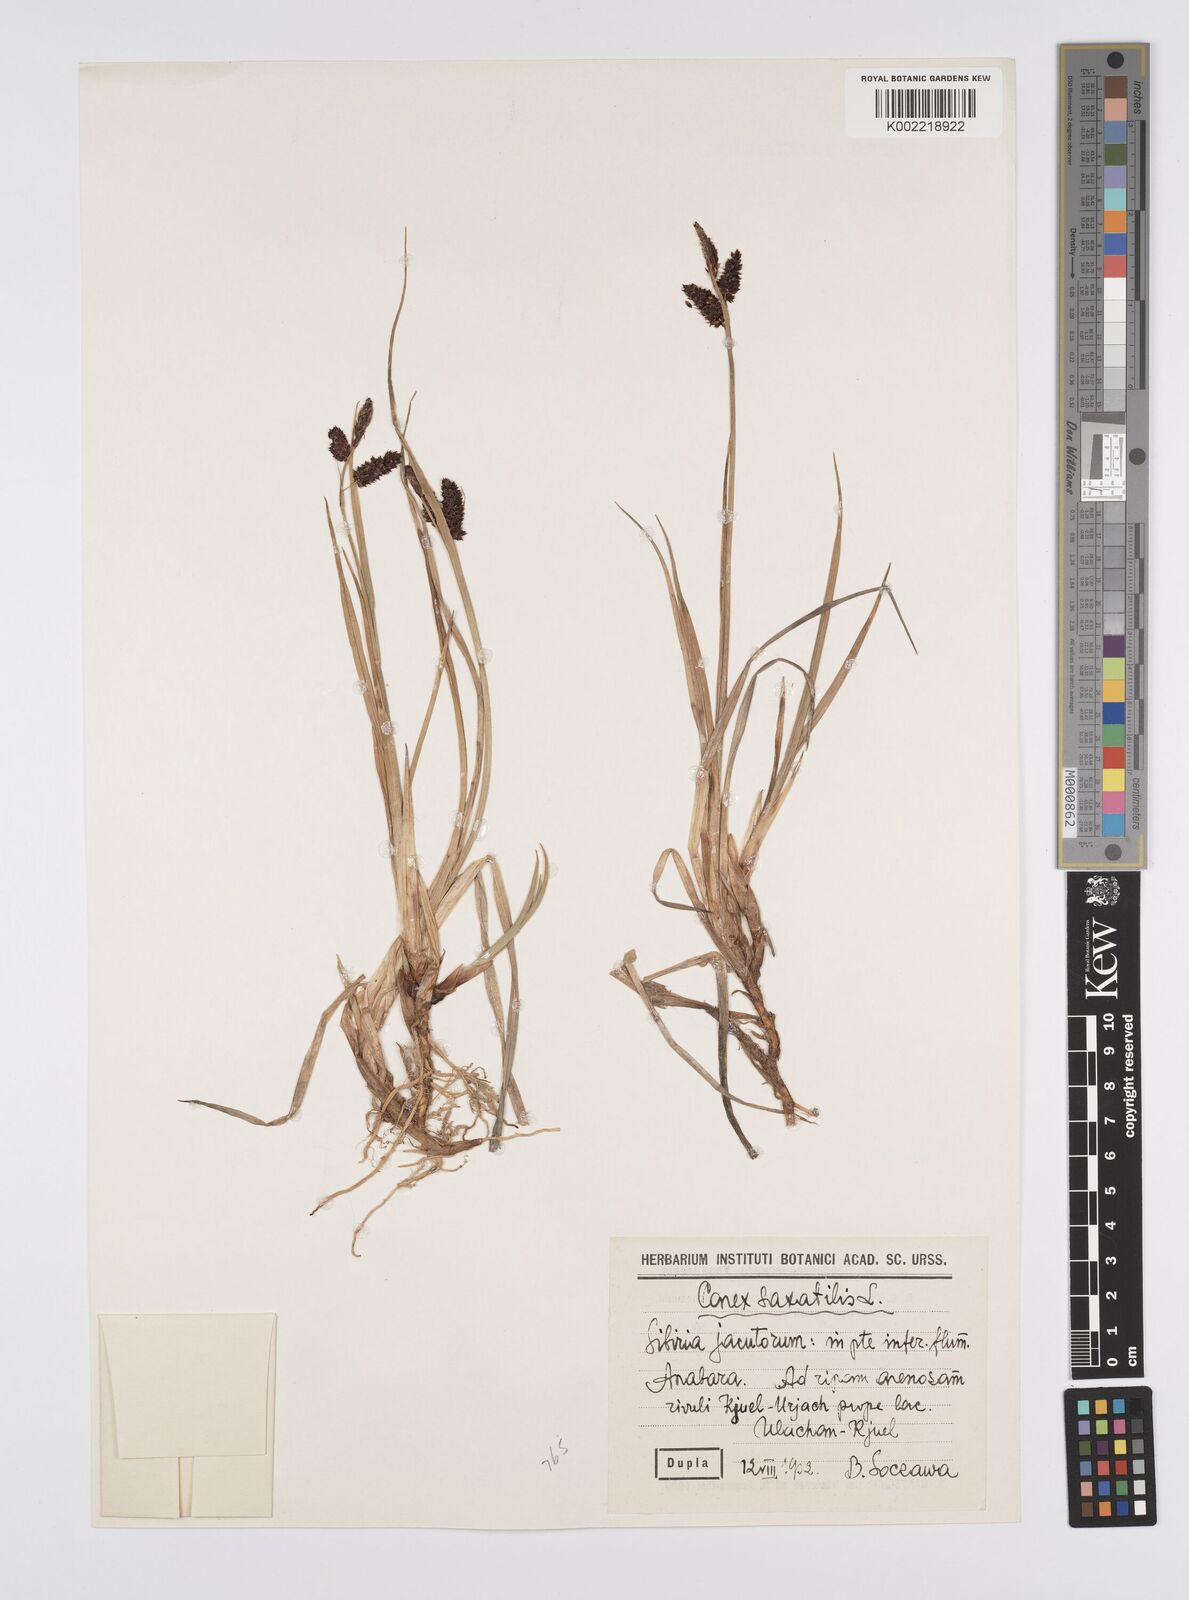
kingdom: Plantae
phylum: Tracheophyta
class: Liliopsida
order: Poales
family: Cyperaceae
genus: Carex
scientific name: Carex saxatilis
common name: Russet sedge
